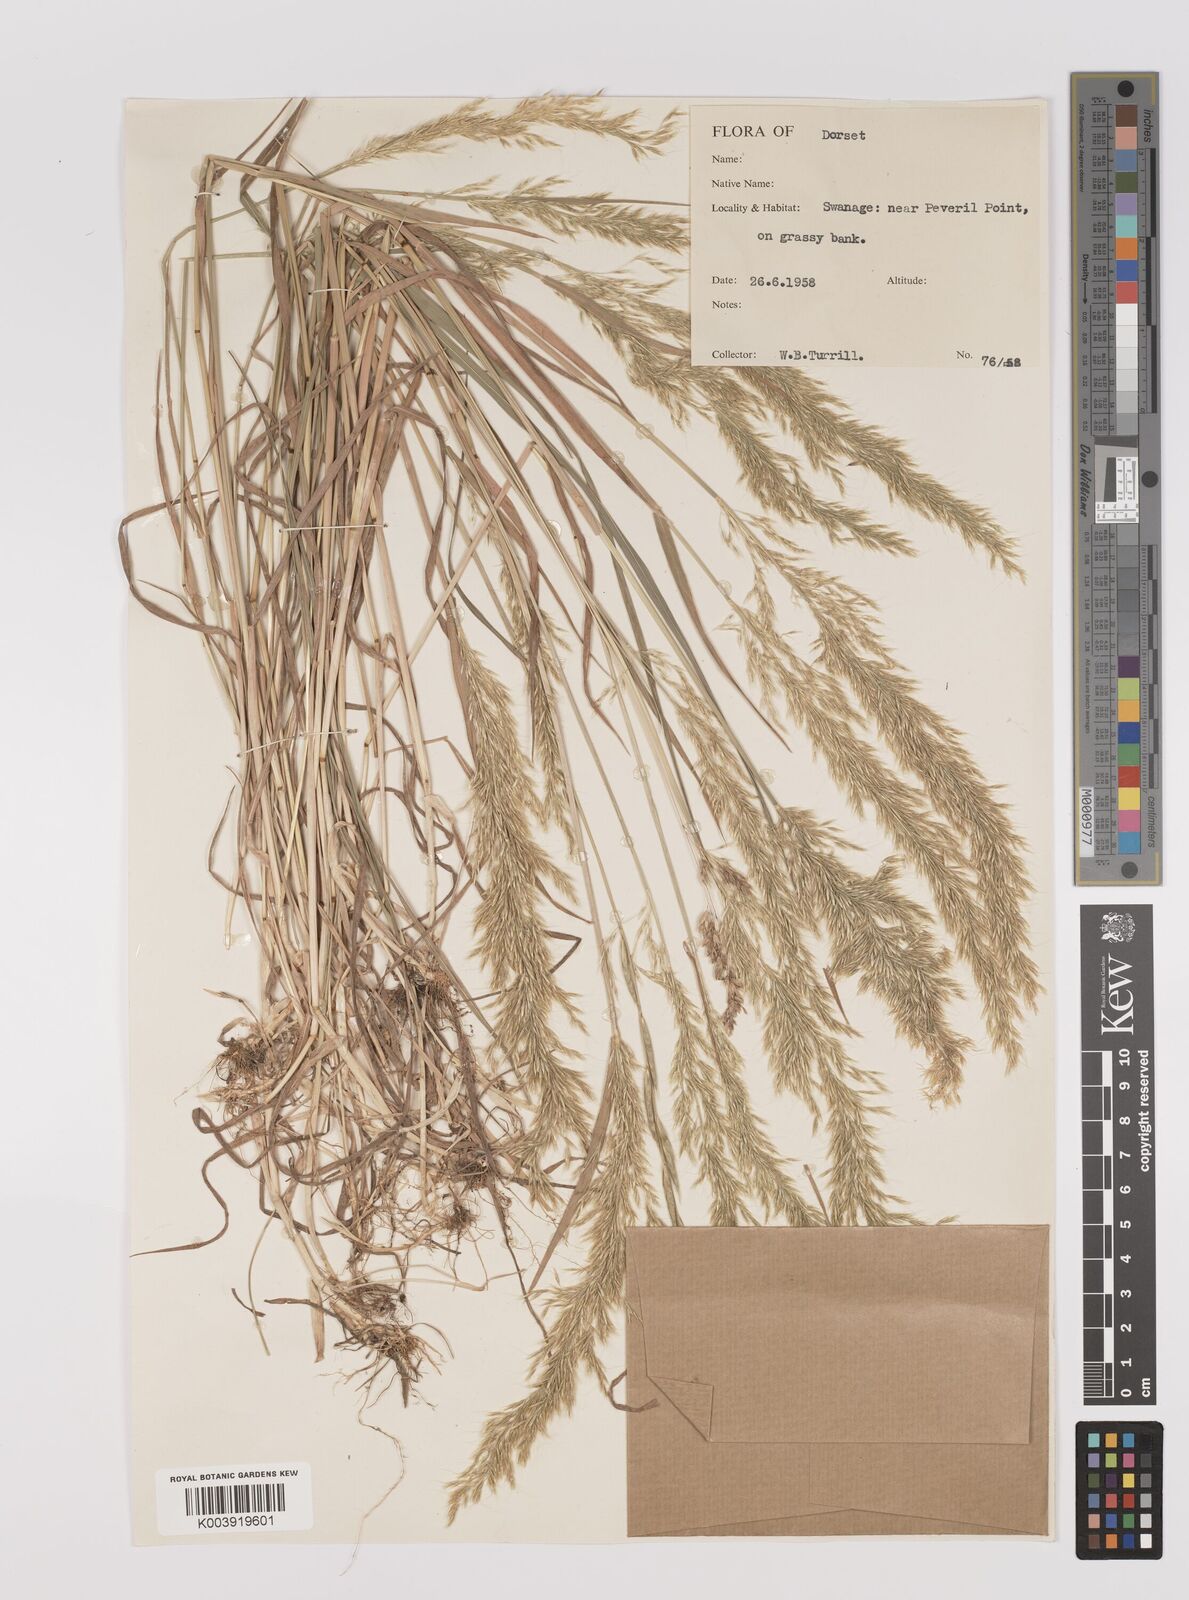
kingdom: Plantae
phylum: Tracheophyta
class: Liliopsida
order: Poales
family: Poaceae
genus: Trisetum
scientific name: Trisetum flavescens
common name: Yellow oat-grass
